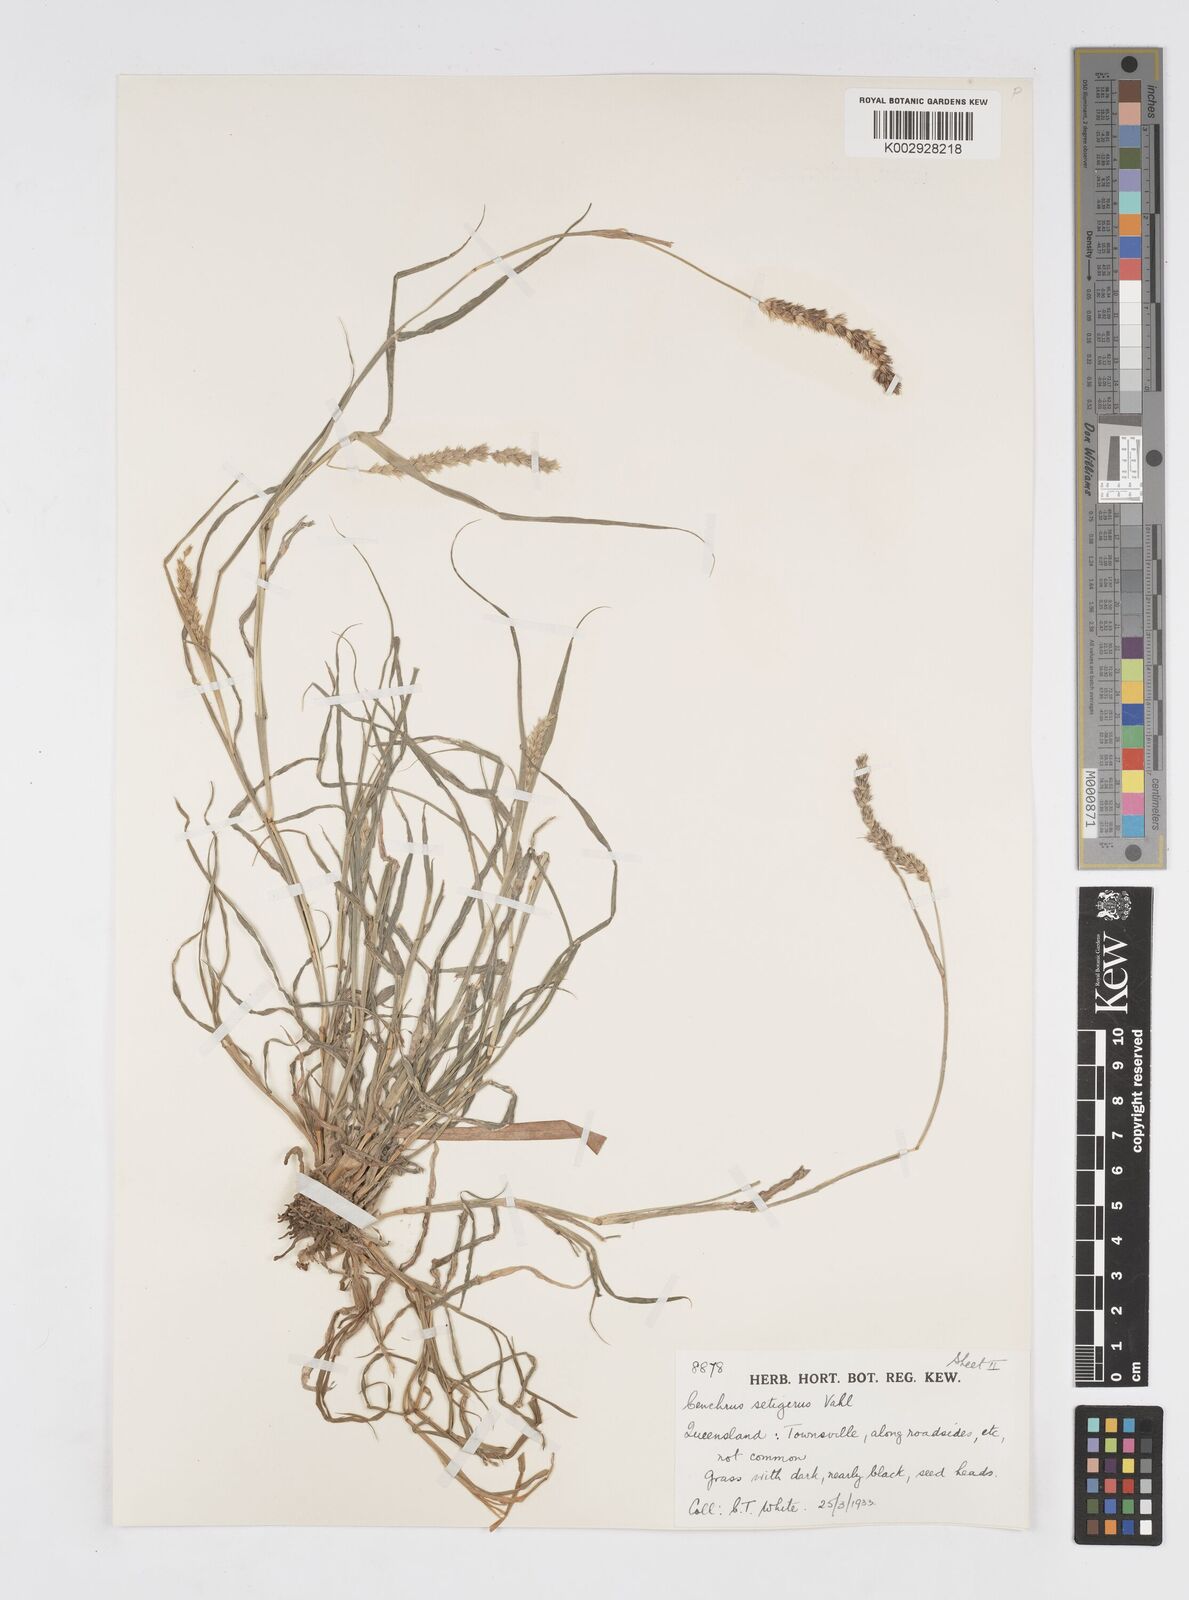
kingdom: Plantae
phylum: Tracheophyta
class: Liliopsida
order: Poales
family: Poaceae
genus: Cenchrus
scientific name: Cenchrus setigerus
